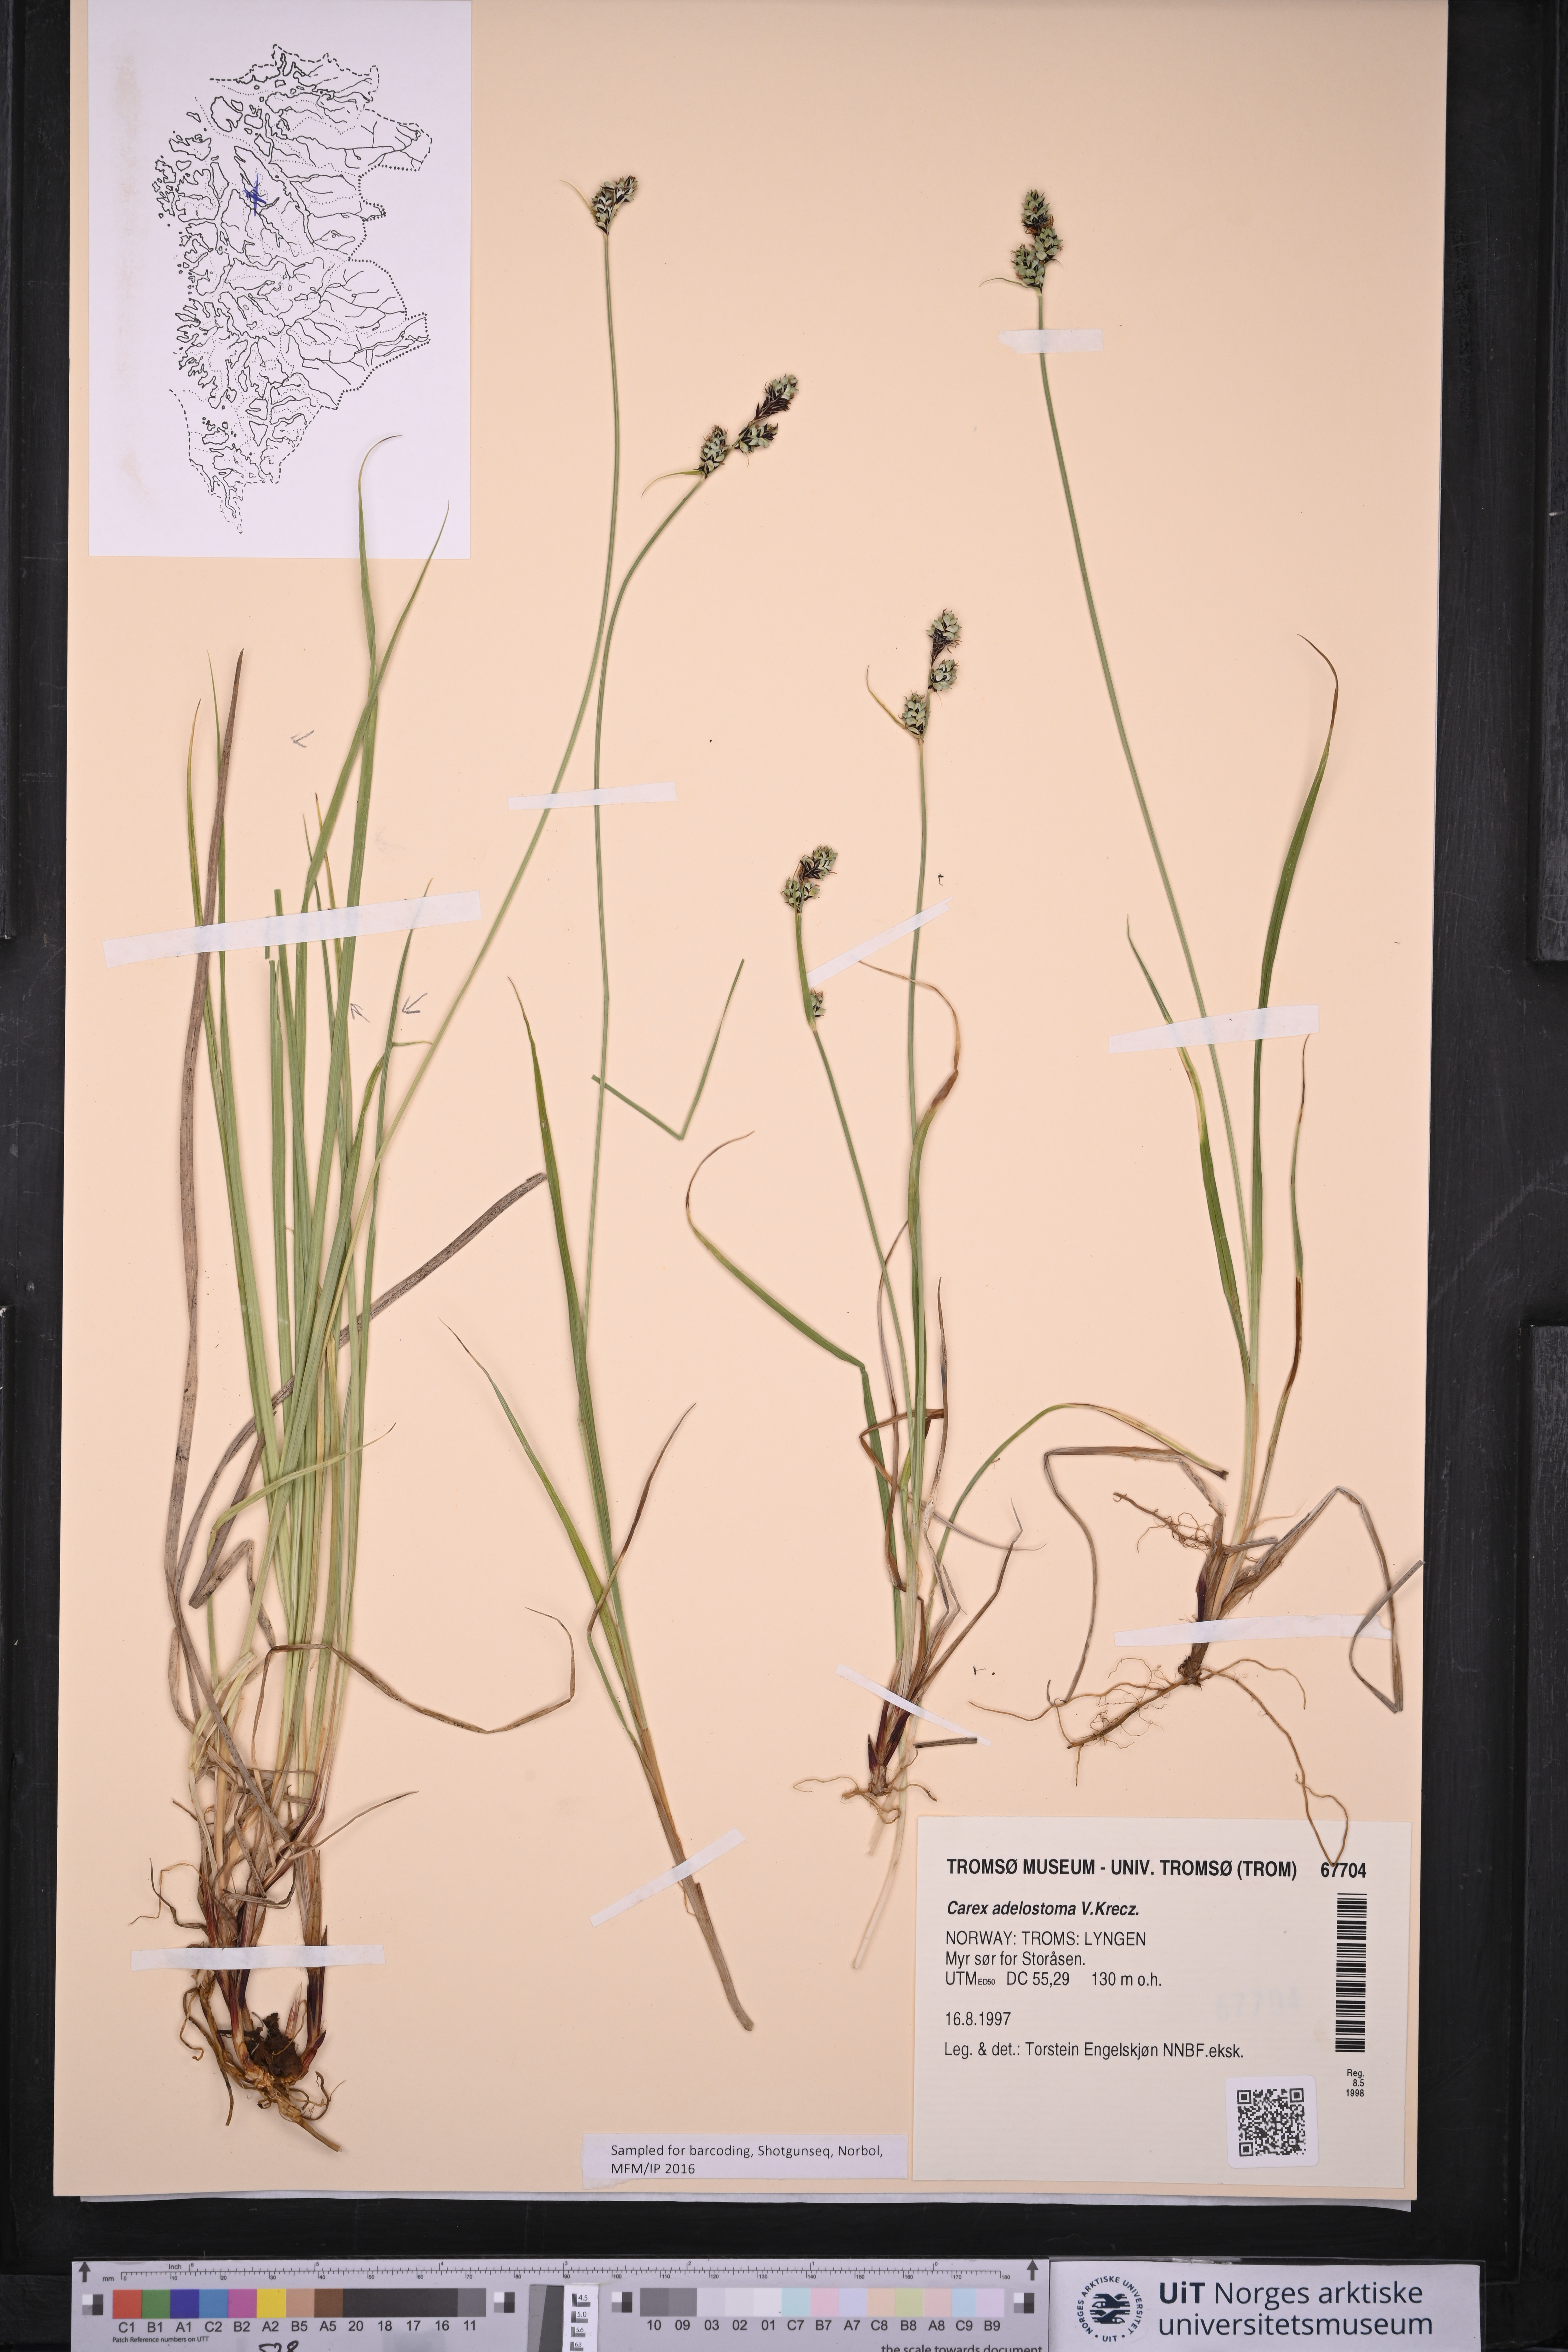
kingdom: Plantae
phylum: Tracheophyta
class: Liliopsida
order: Poales
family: Cyperaceae
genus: Carex
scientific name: Carex adelostoma
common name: Circumpolar sedge
